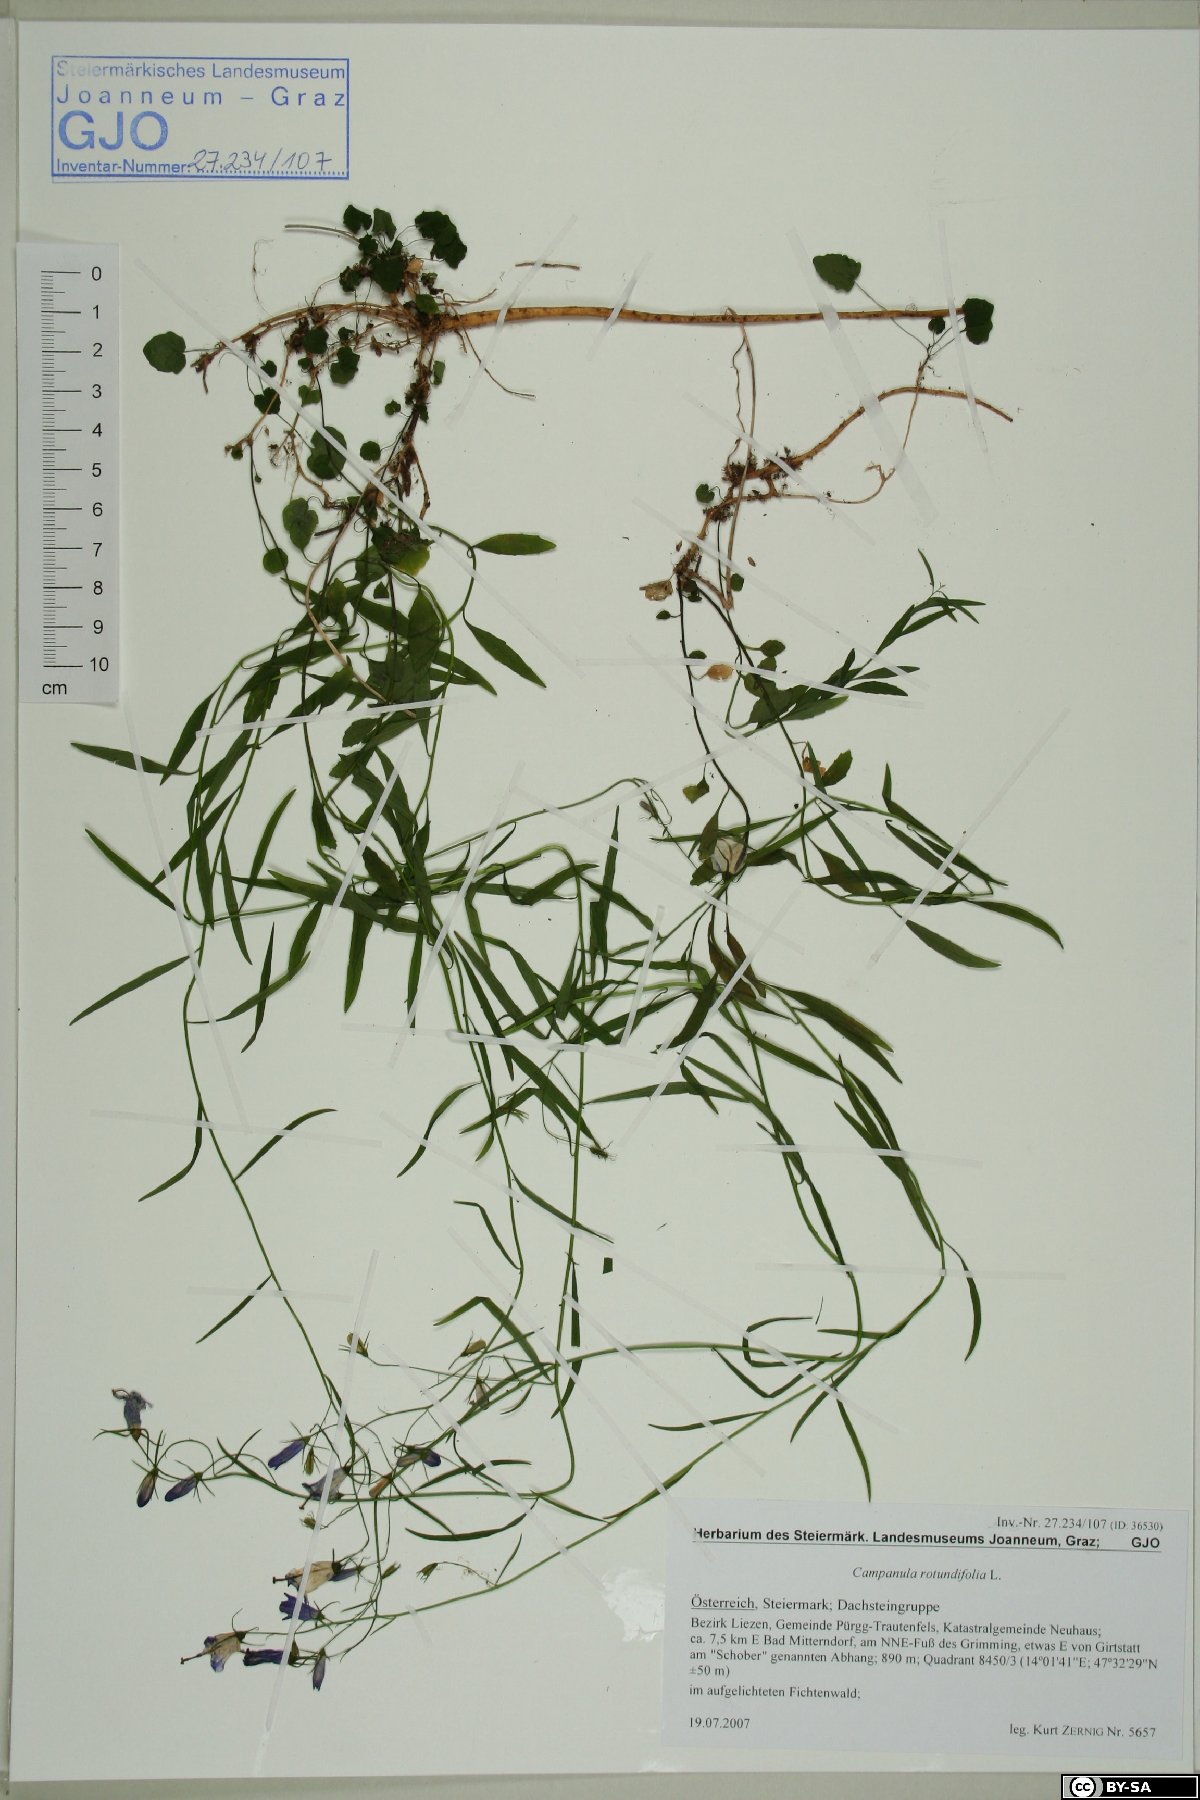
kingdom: Plantae
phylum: Tracheophyta
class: Magnoliopsida
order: Asterales
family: Campanulaceae
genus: Campanula
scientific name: Campanula rotundifolia
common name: Harebell
